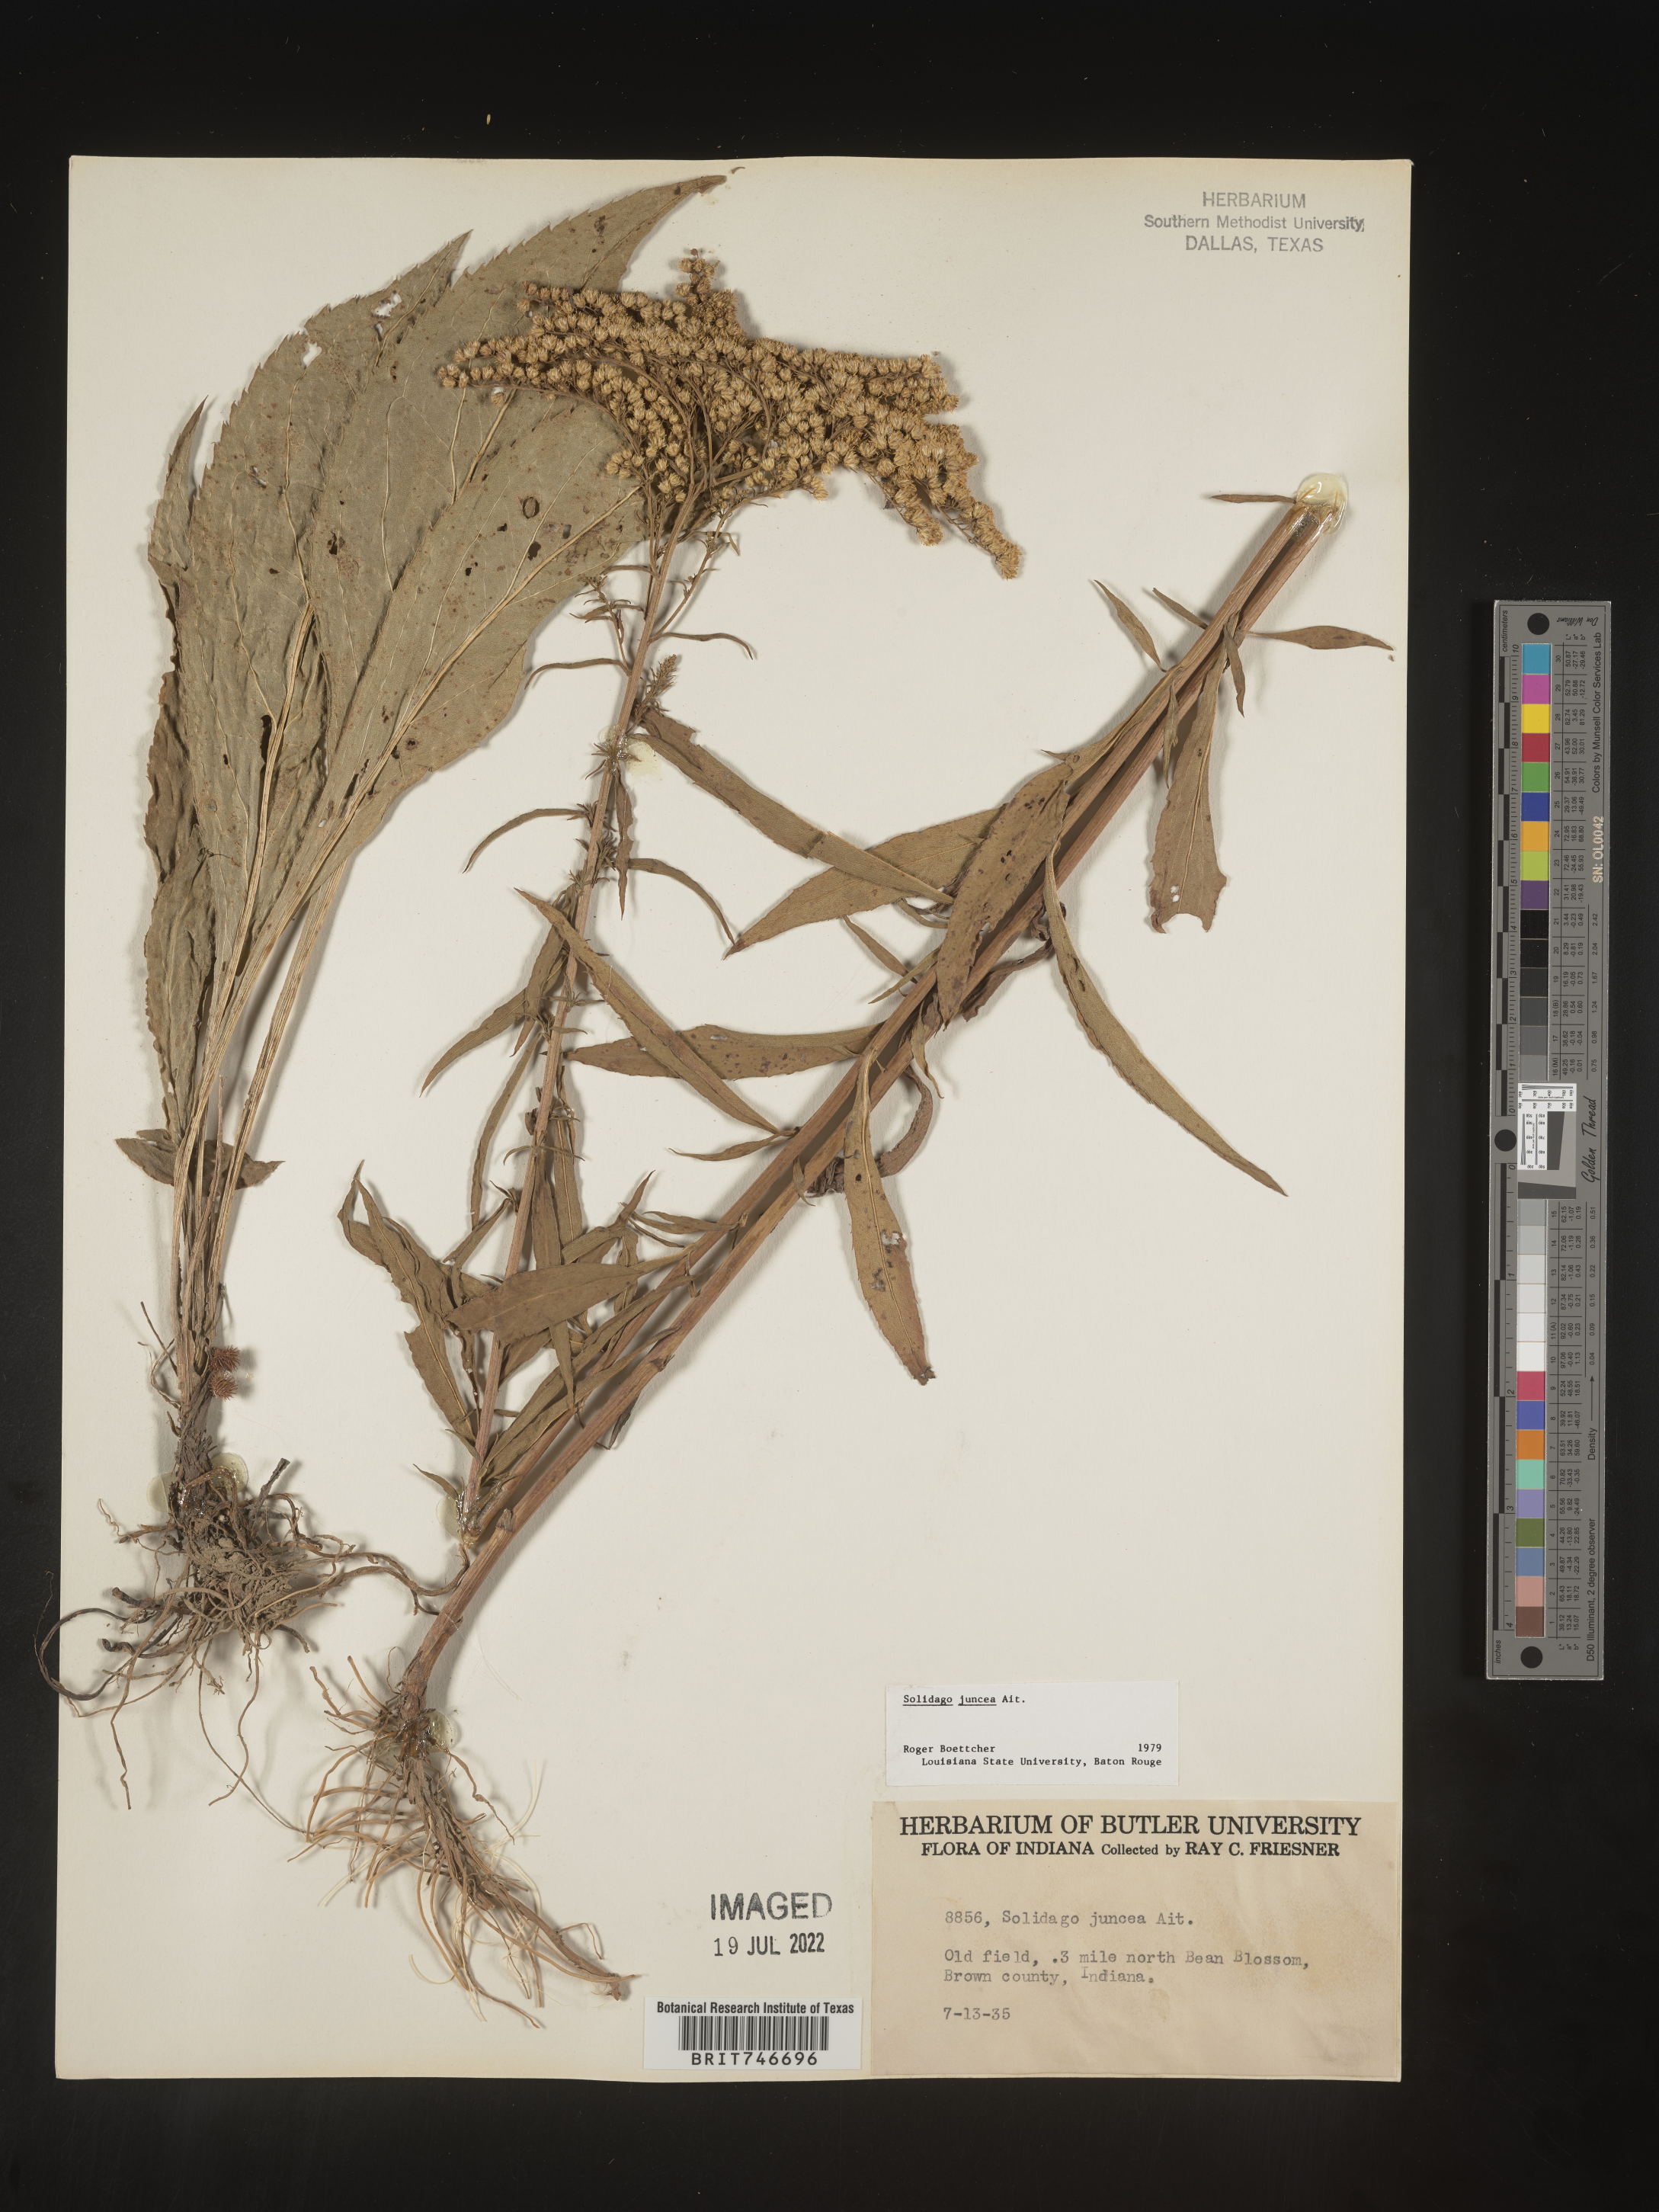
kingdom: Plantae
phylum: Tracheophyta
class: Magnoliopsida
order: Asterales
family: Asteraceae
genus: Solidago
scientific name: Solidago juncea
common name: Early goldenrod
